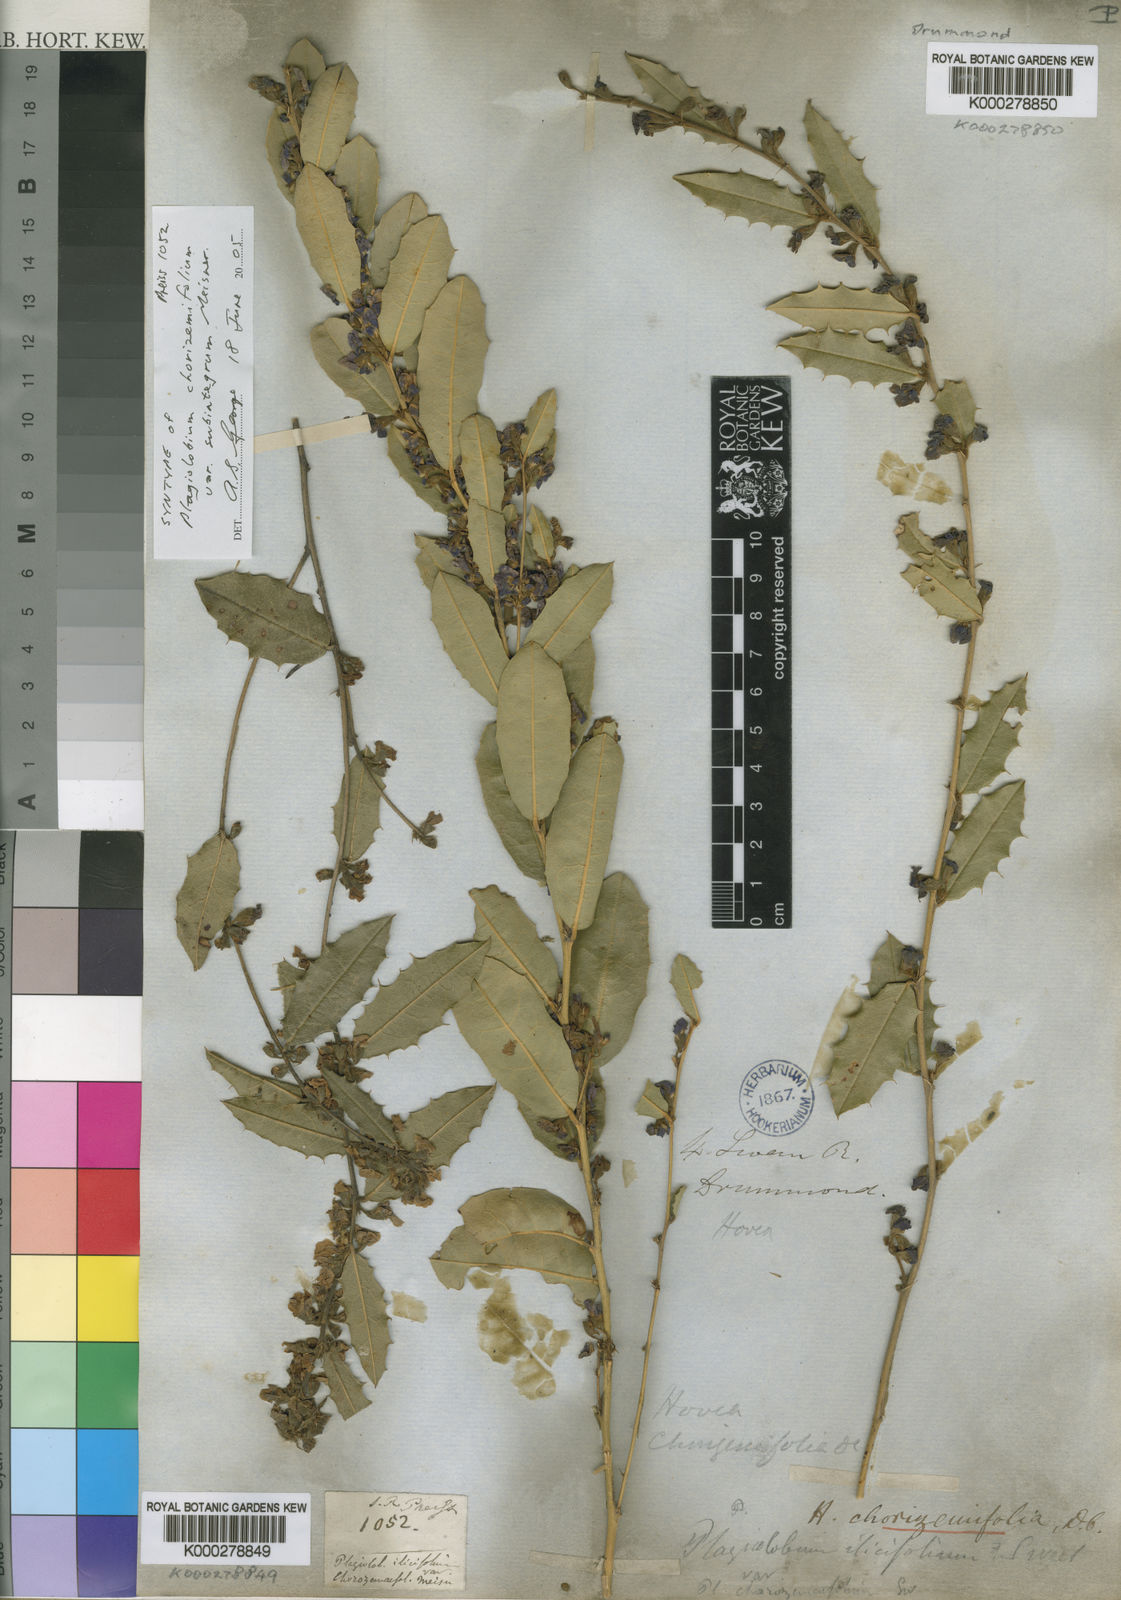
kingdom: Plantae
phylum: Tracheophyta
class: Magnoliopsida
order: Fabales
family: Fabaceae
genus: Hovea
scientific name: Hovea chorizemifolia
